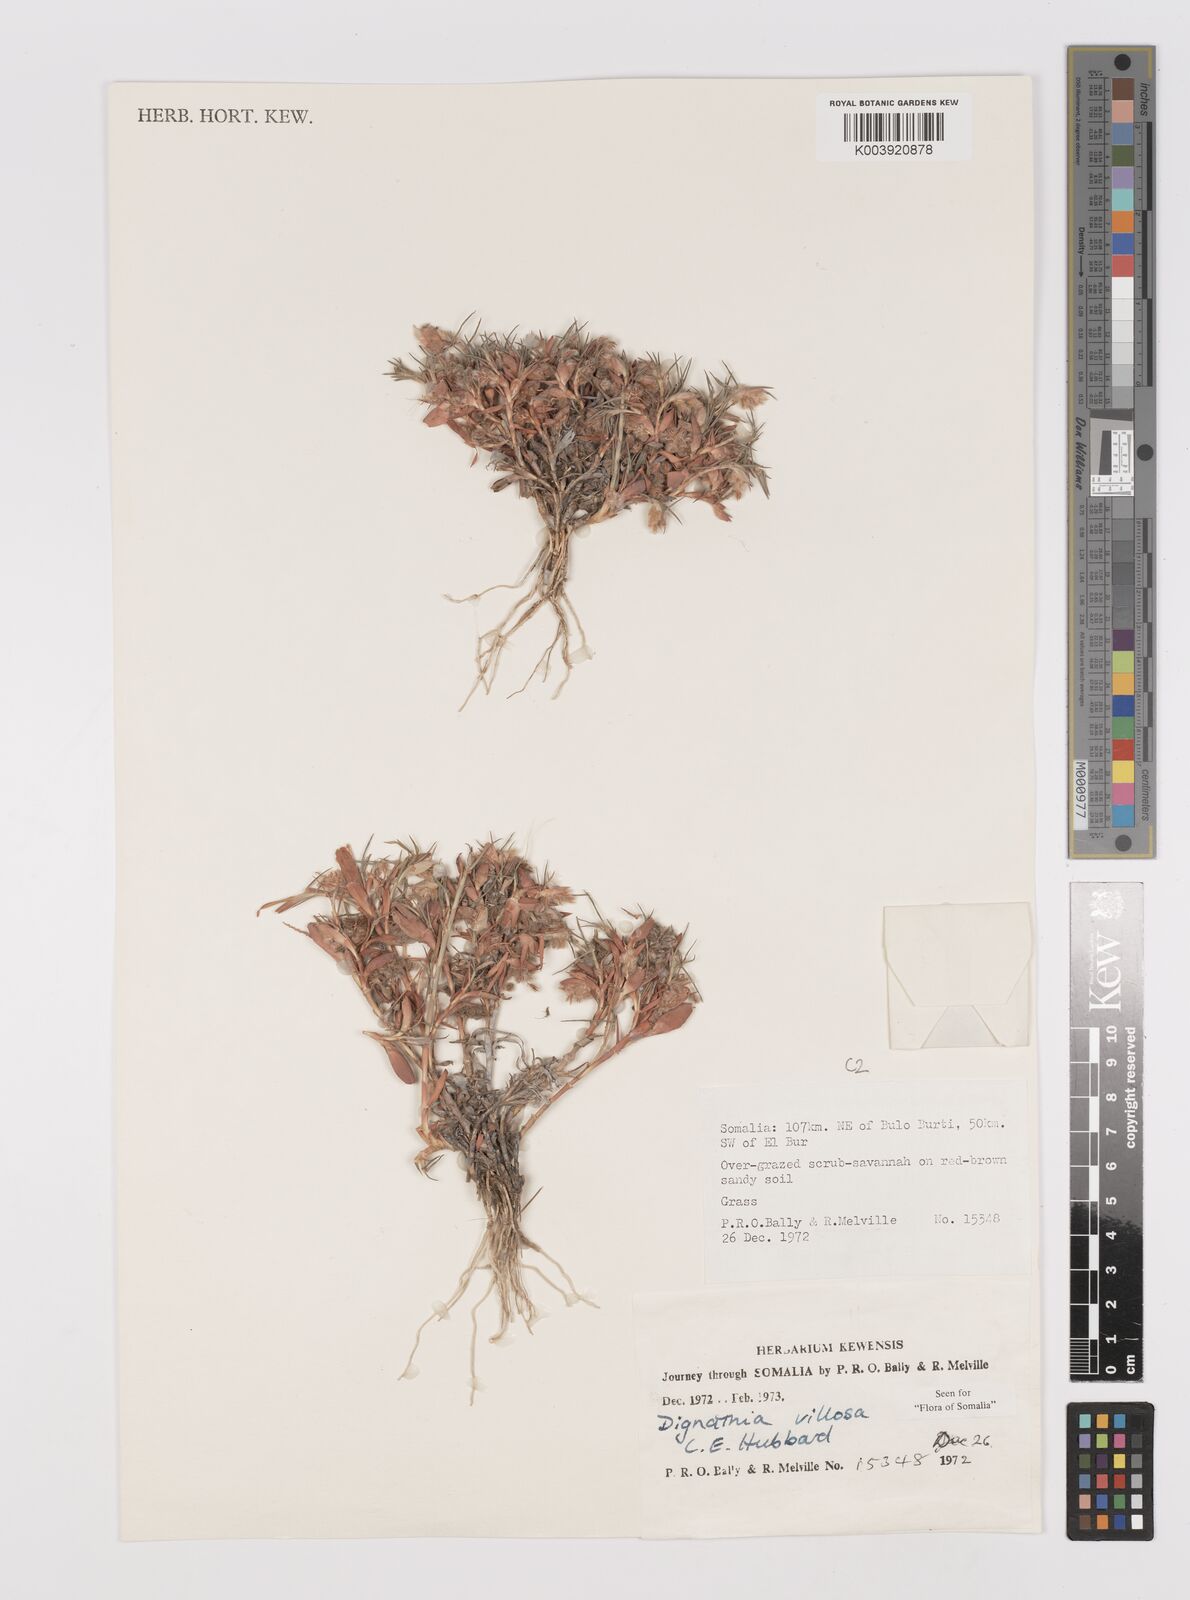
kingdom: Plantae
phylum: Tracheophyta
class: Liliopsida
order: Poales
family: Poaceae
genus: Dignathia
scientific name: Dignathia villosa
